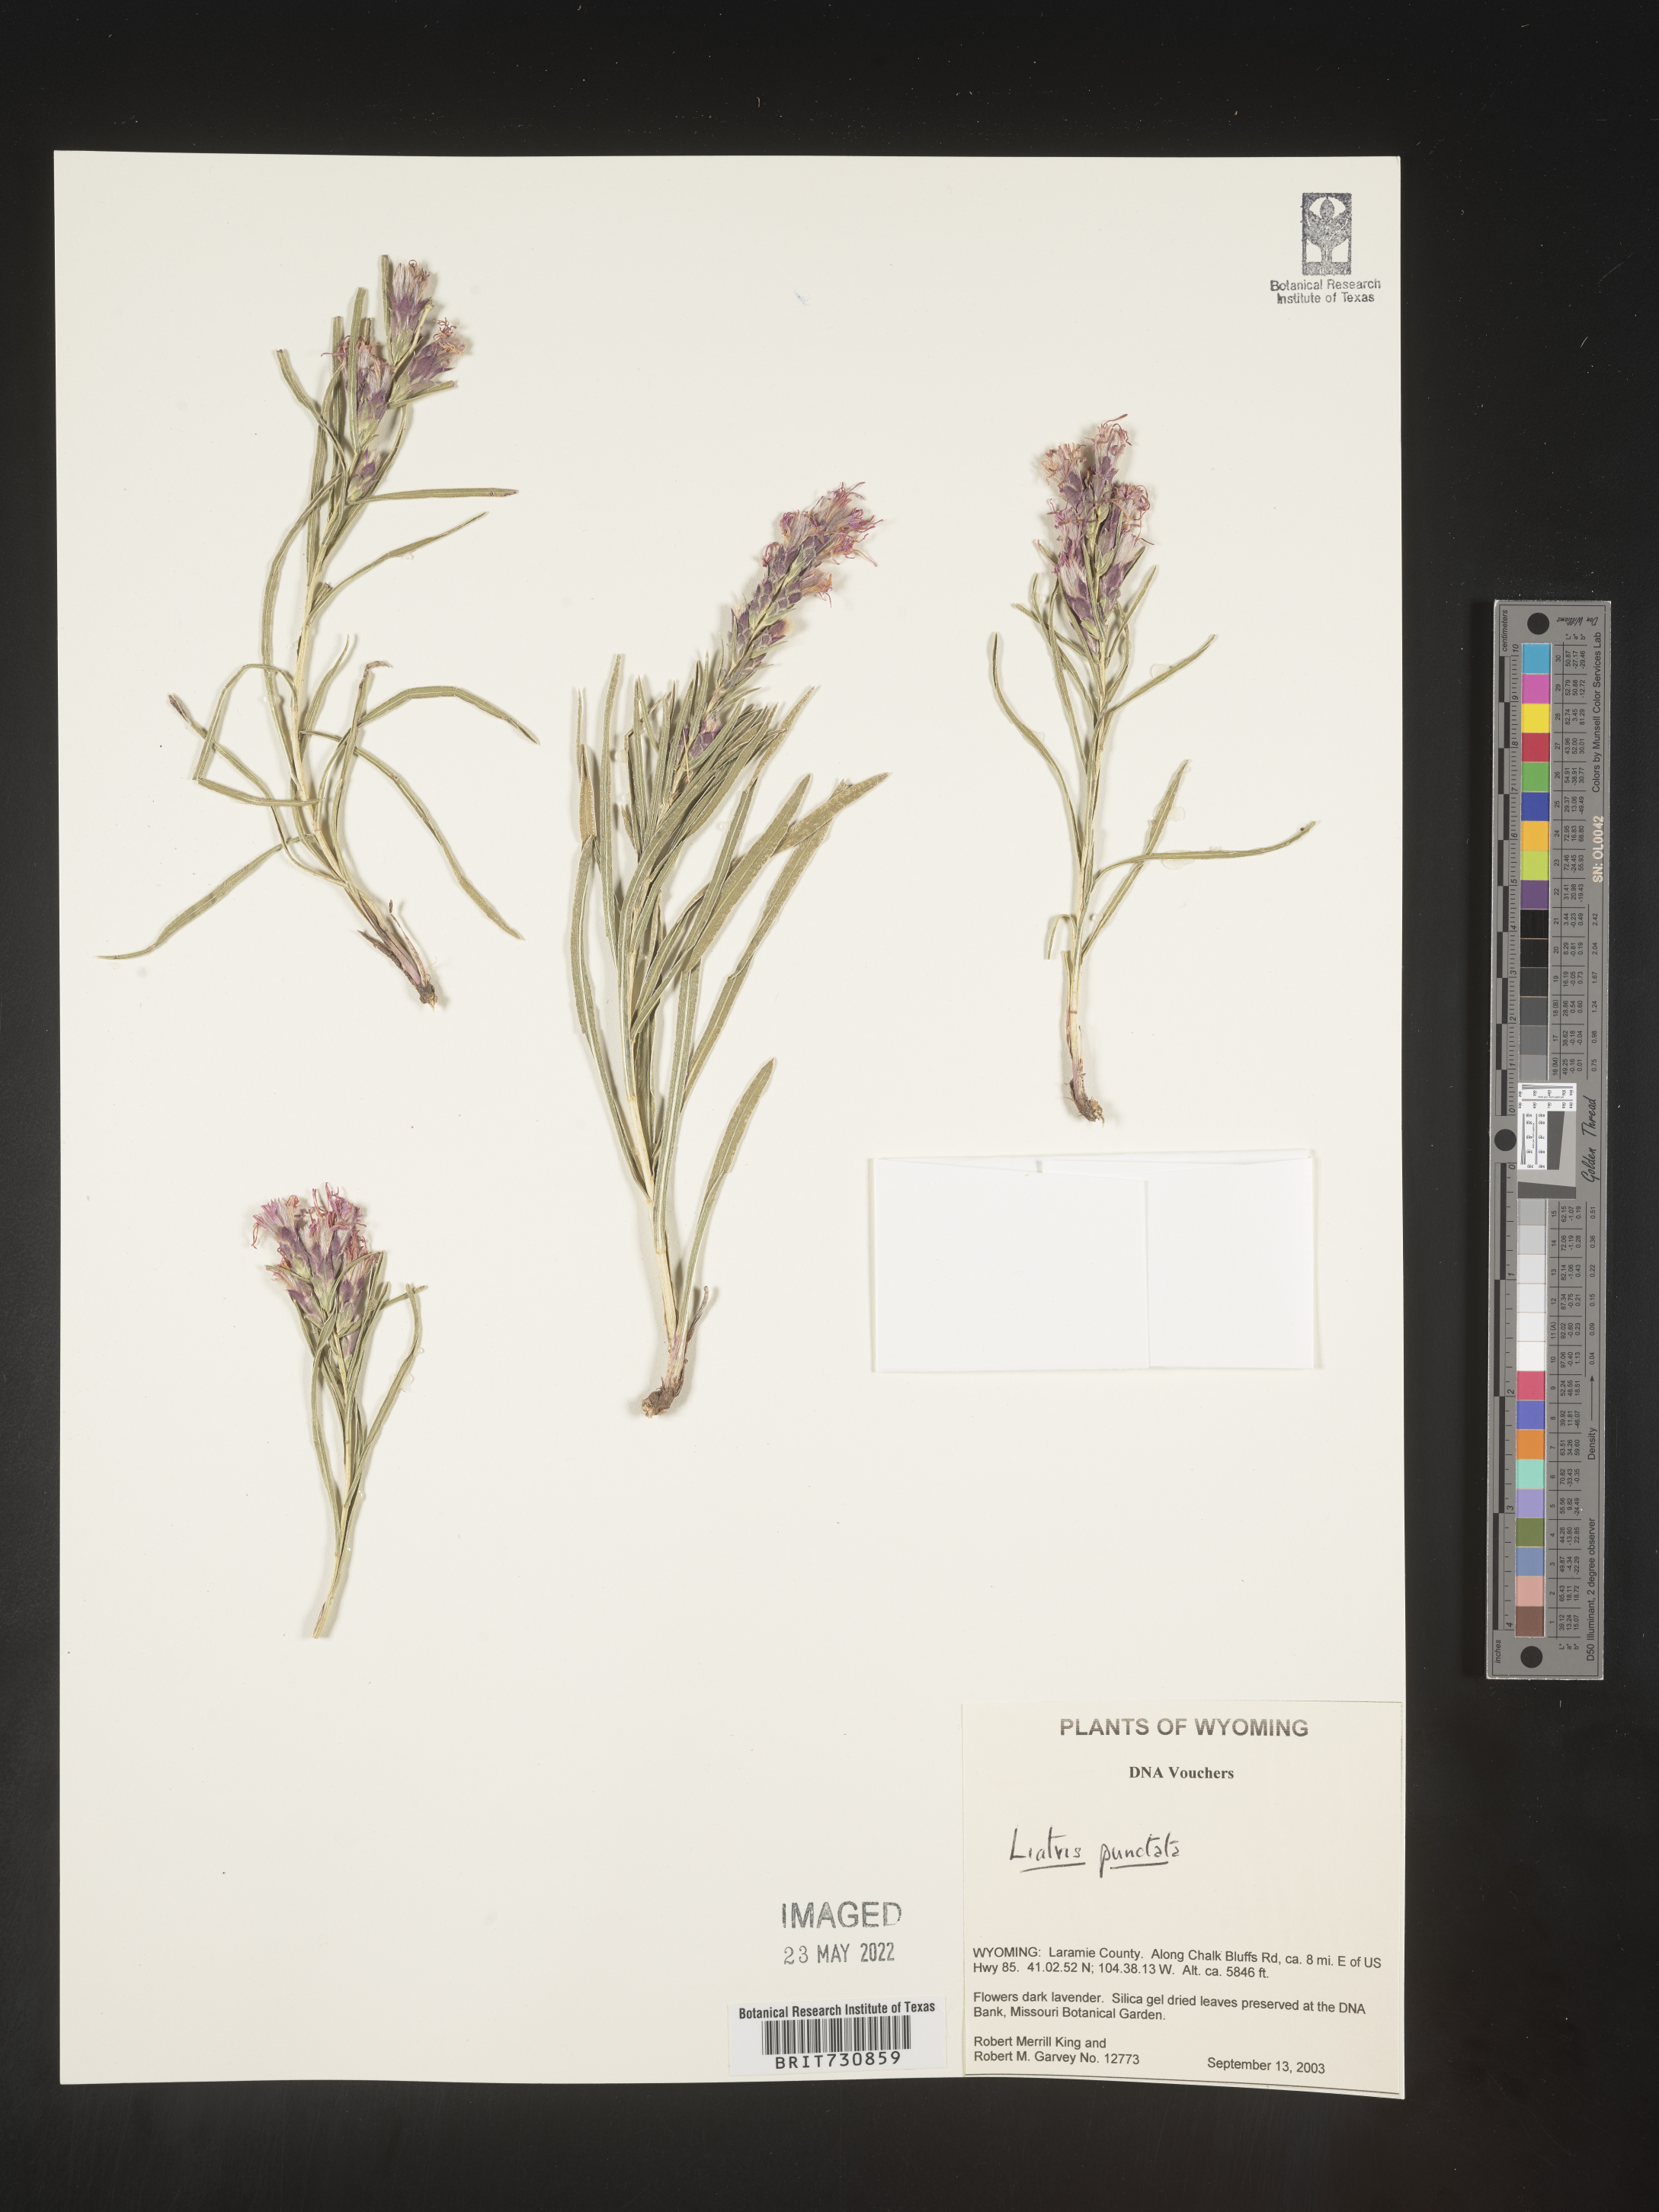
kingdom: Plantae
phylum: Tracheophyta
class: Magnoliopsida
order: Asterales
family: Asteraceae
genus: Liatris
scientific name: Liatris punctata
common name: Dotted gayfeather
